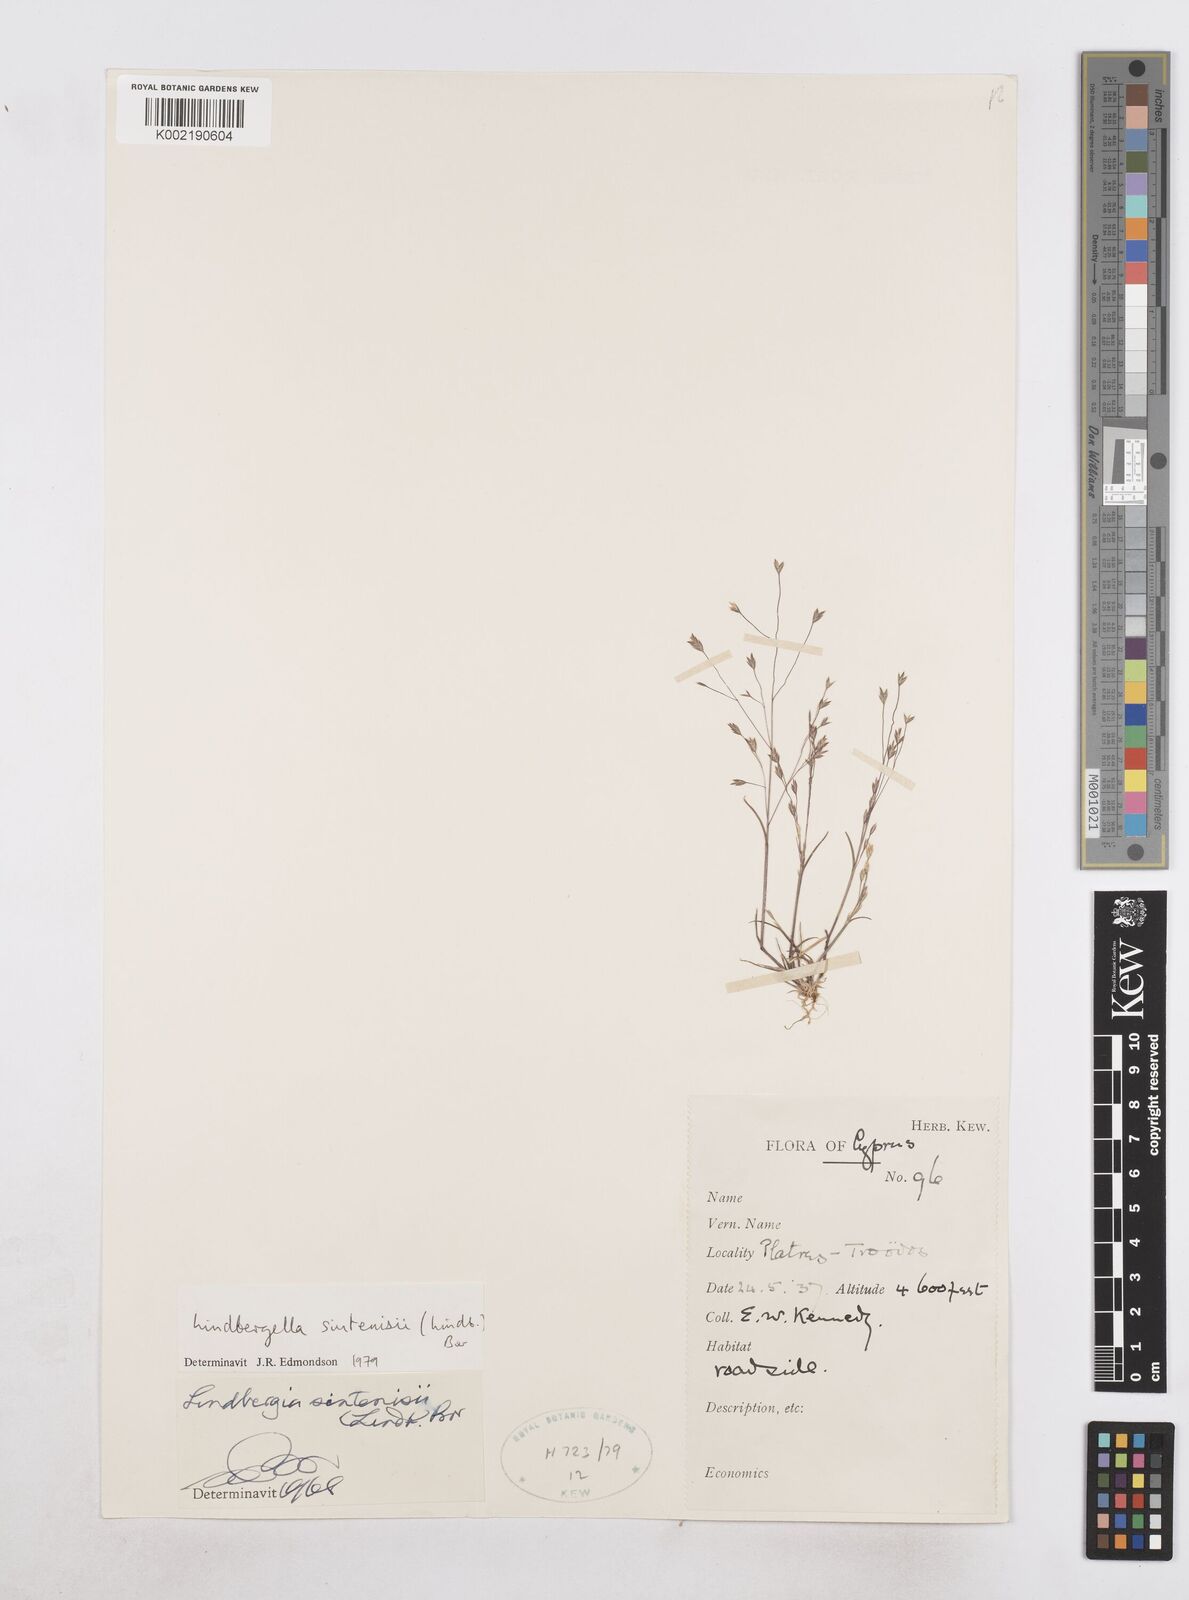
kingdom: Plantae
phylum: Tracheophyta
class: Liliopsida
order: Poales
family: Poaceae
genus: Poa
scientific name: Poa sintenisii
